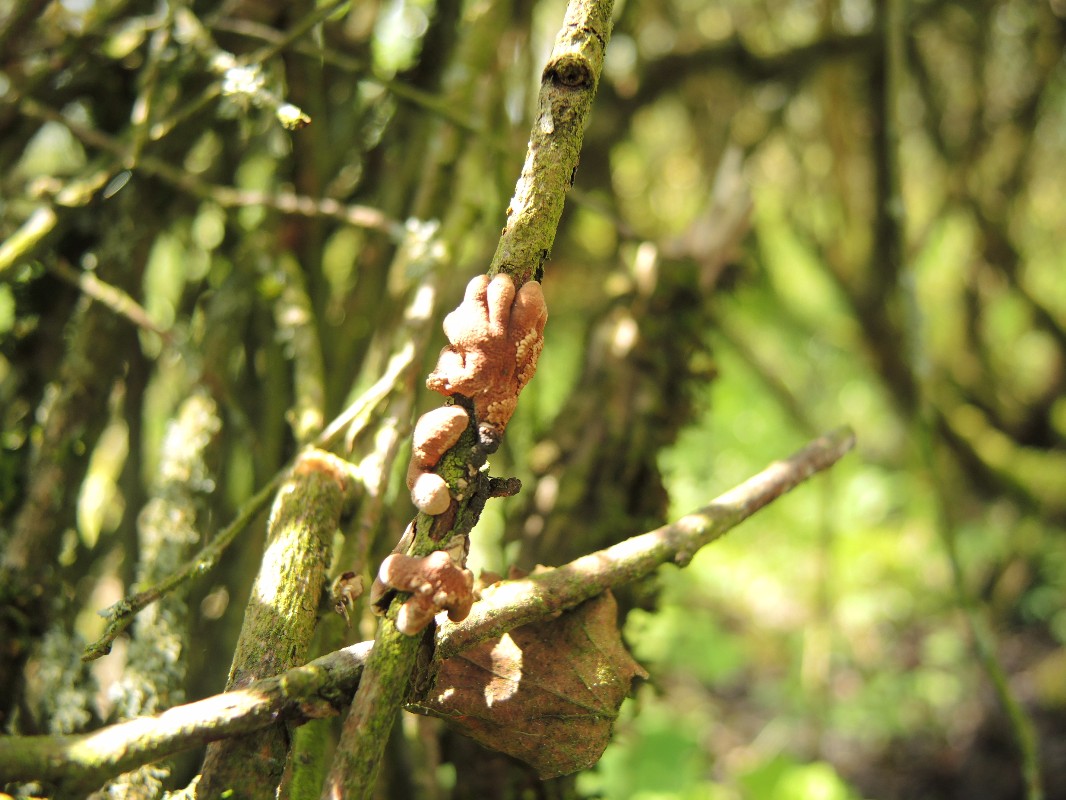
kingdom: Fungi
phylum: Ascomycota
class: Sordariomycetes
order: Hypocreales
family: Hypocreaceae
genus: Hypocreopsis
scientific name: Hypocreopsis lichenoides
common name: pilfinger
